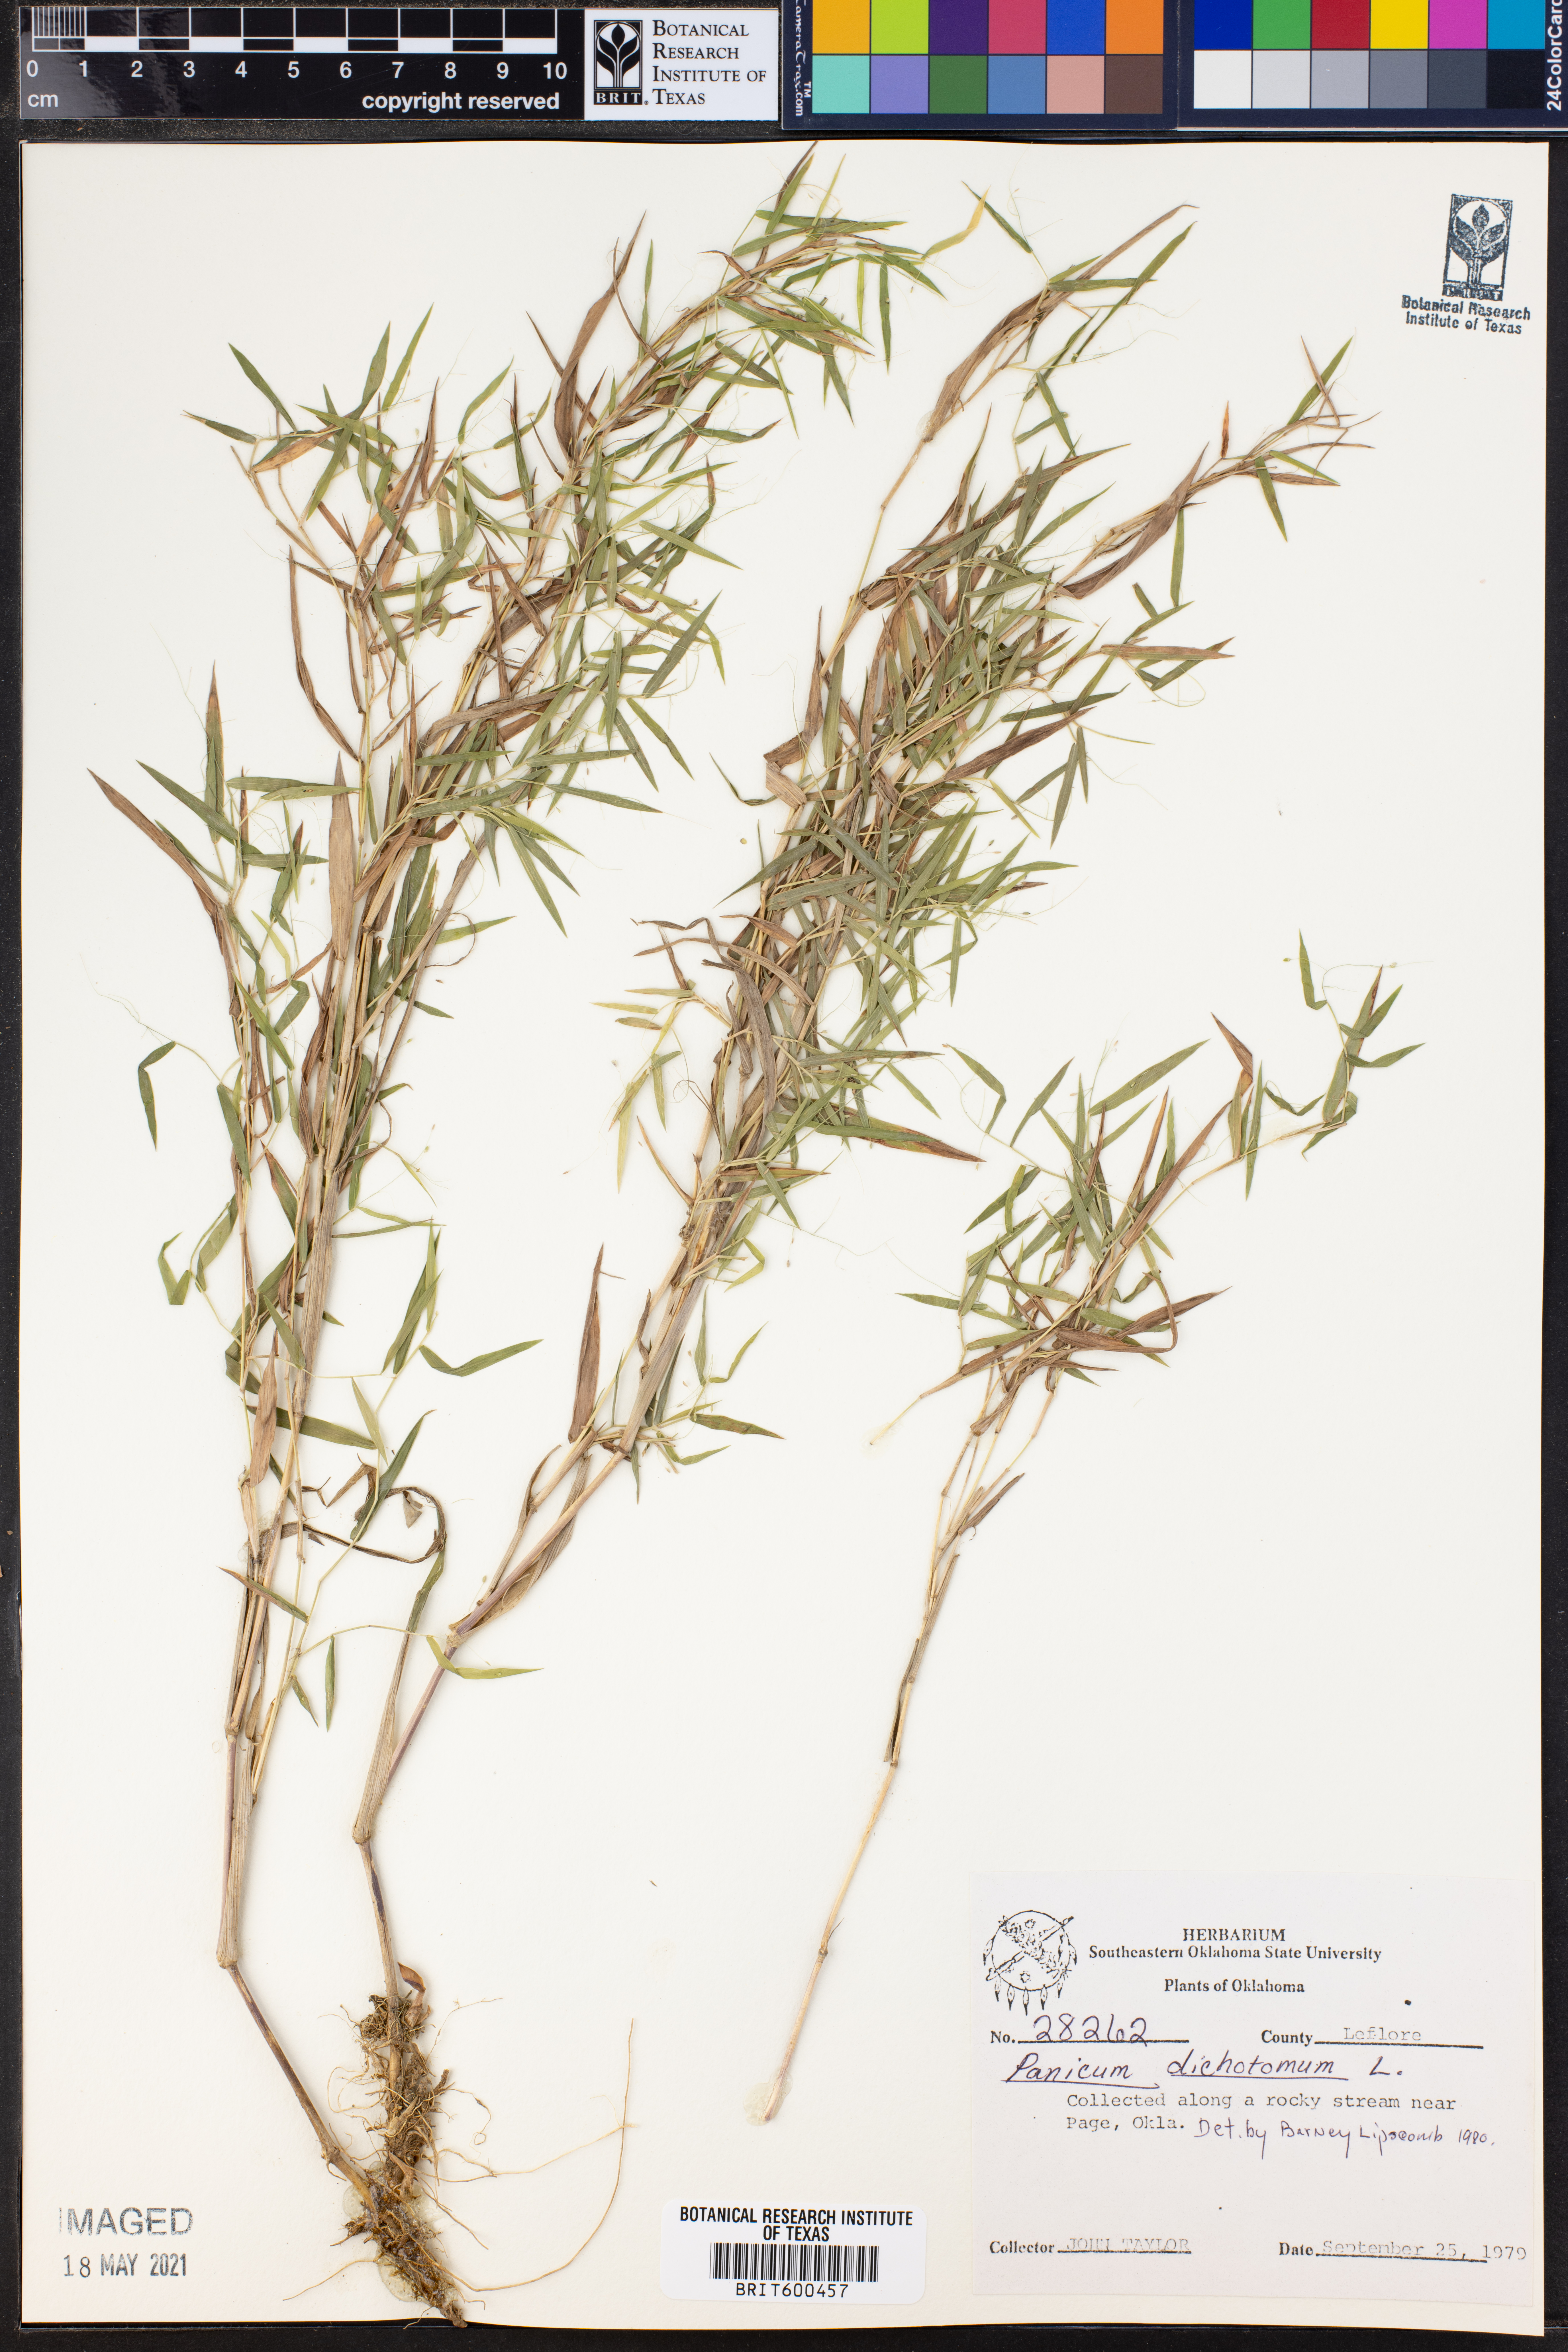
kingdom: Plantae
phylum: Tracheophyta
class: Liliopsida
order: Poales
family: Poaceae
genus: Dichanthelium
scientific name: Dichanthelium dichotomum
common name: Cypress panicgrass
